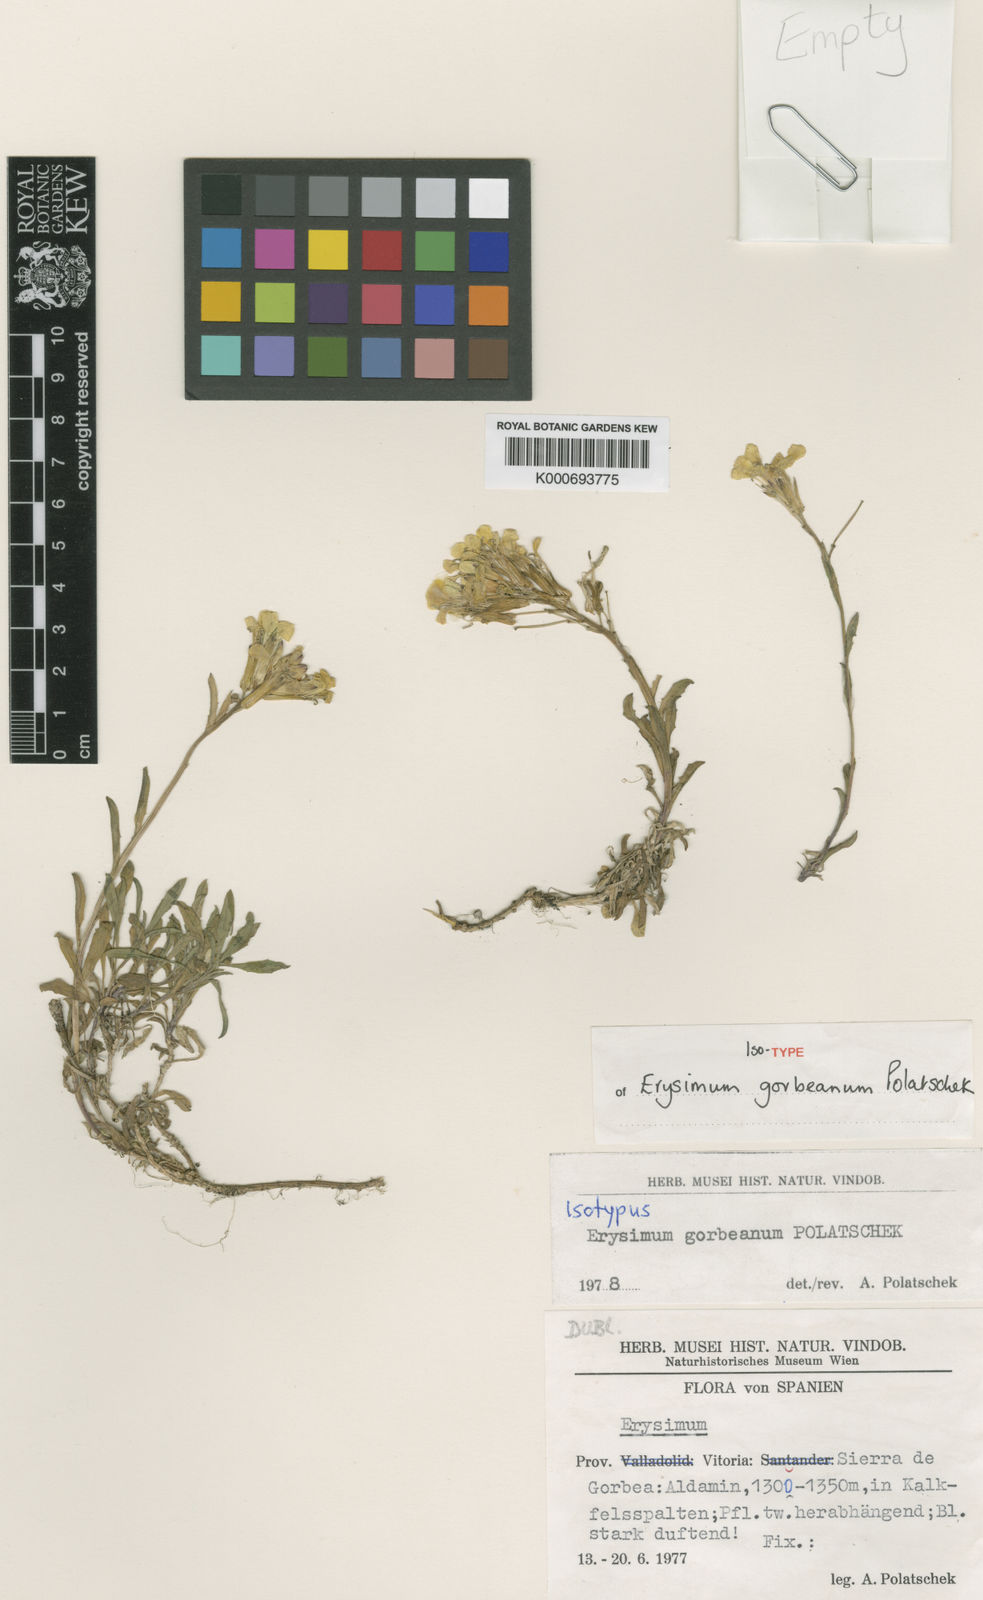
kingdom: Plantae
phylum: Tracheophyta
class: Magnoliopsida
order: Brassicales
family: Brassicaceae
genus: Erysimum
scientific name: Erysimum duriaei
